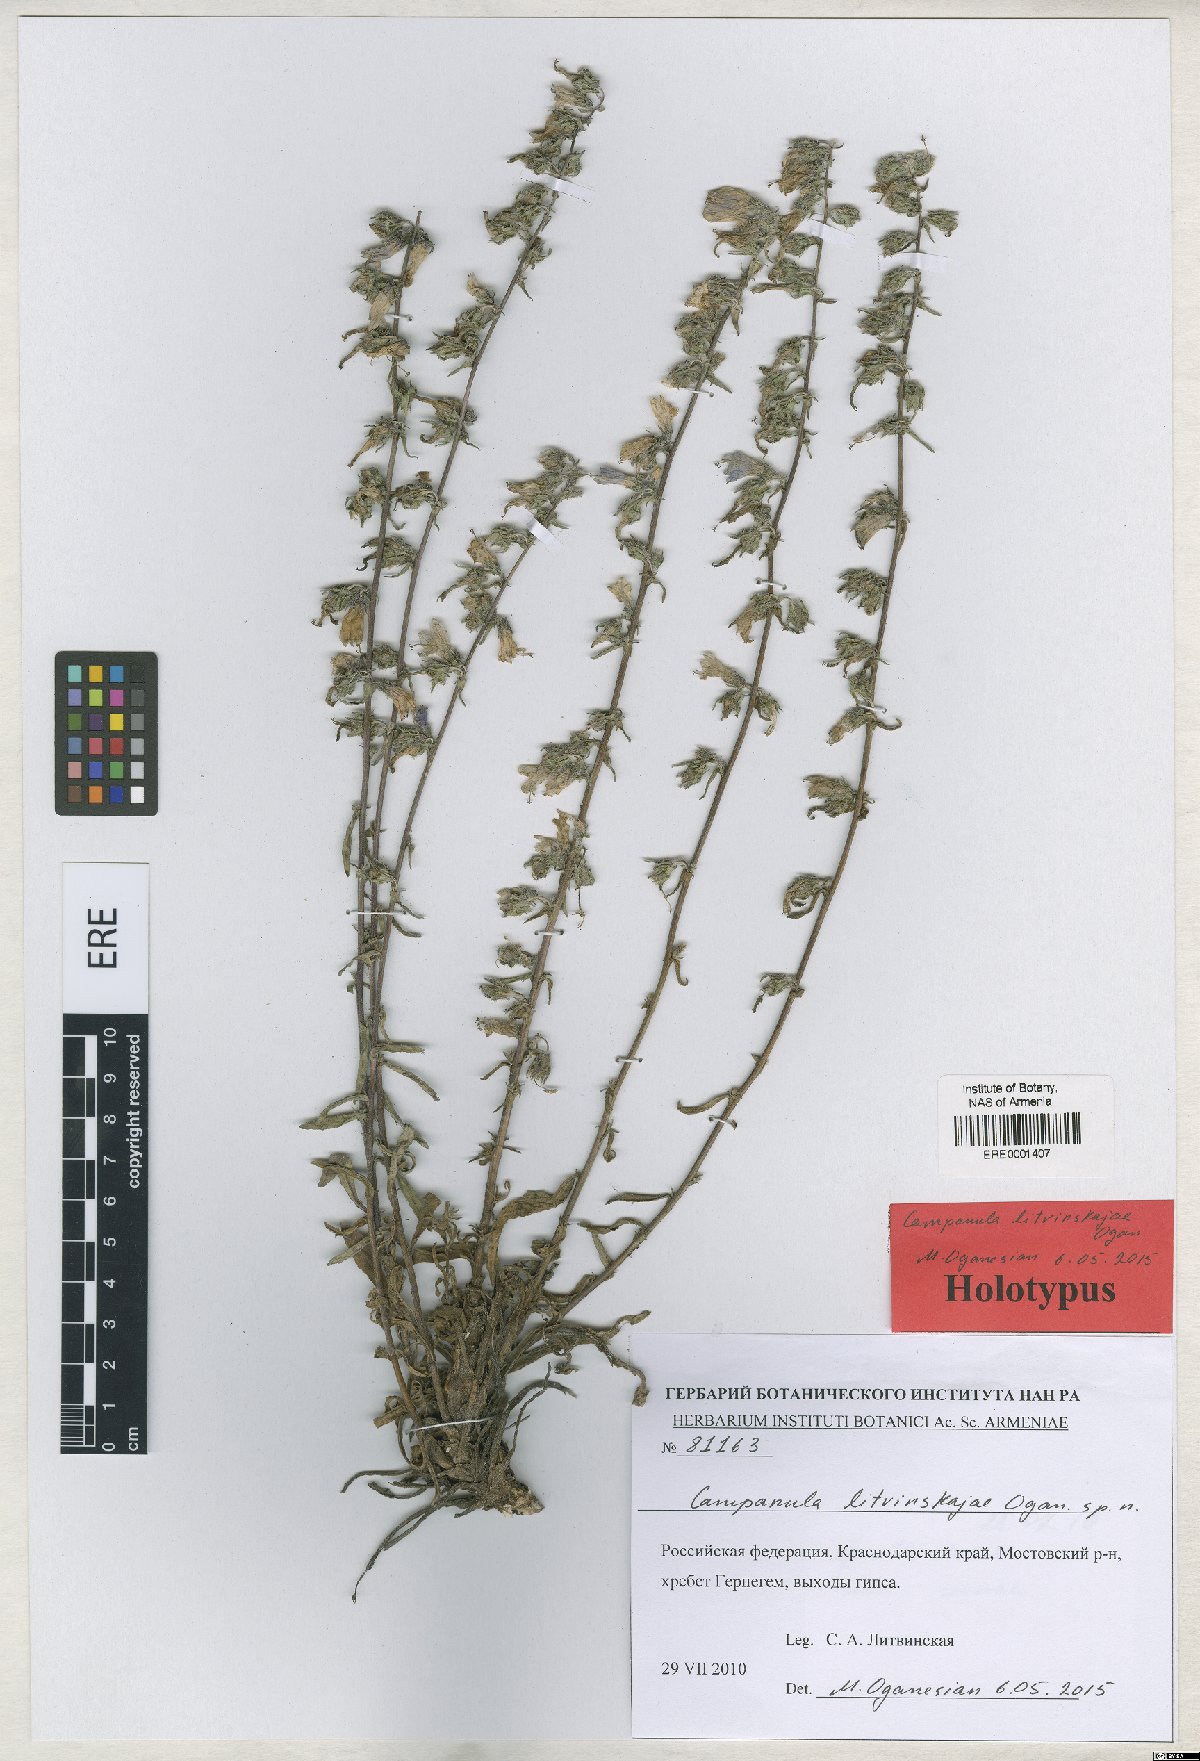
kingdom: Plantae
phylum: Tracheophyta
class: Magnoliopsida
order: Asterales
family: Campanulaceae
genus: Campanula
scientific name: Campanula litvinskajae
